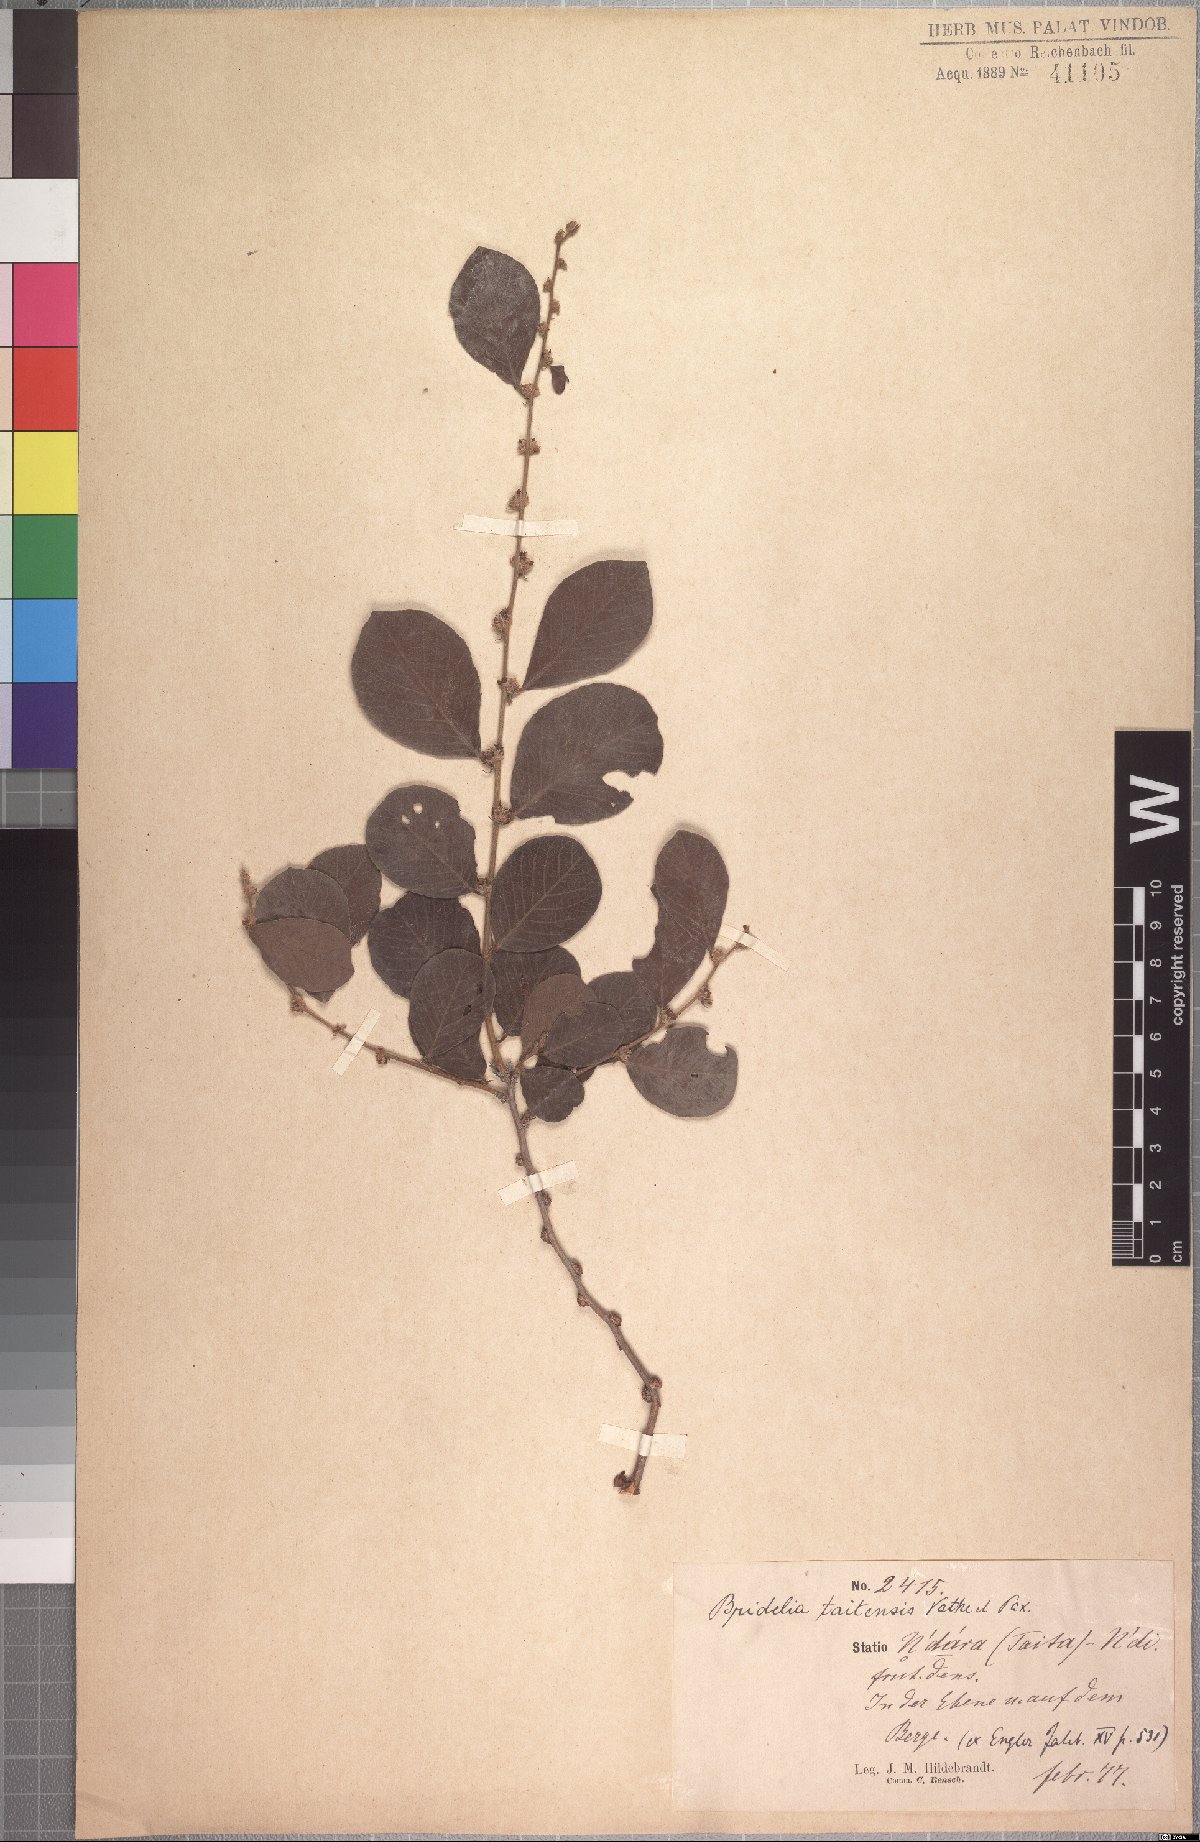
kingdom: Plantae
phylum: Tracheophyta
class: Magnoliopsida
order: Malpighiales
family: Phyllanthaceae
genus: Bridelia
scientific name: Bridelia taitensis
